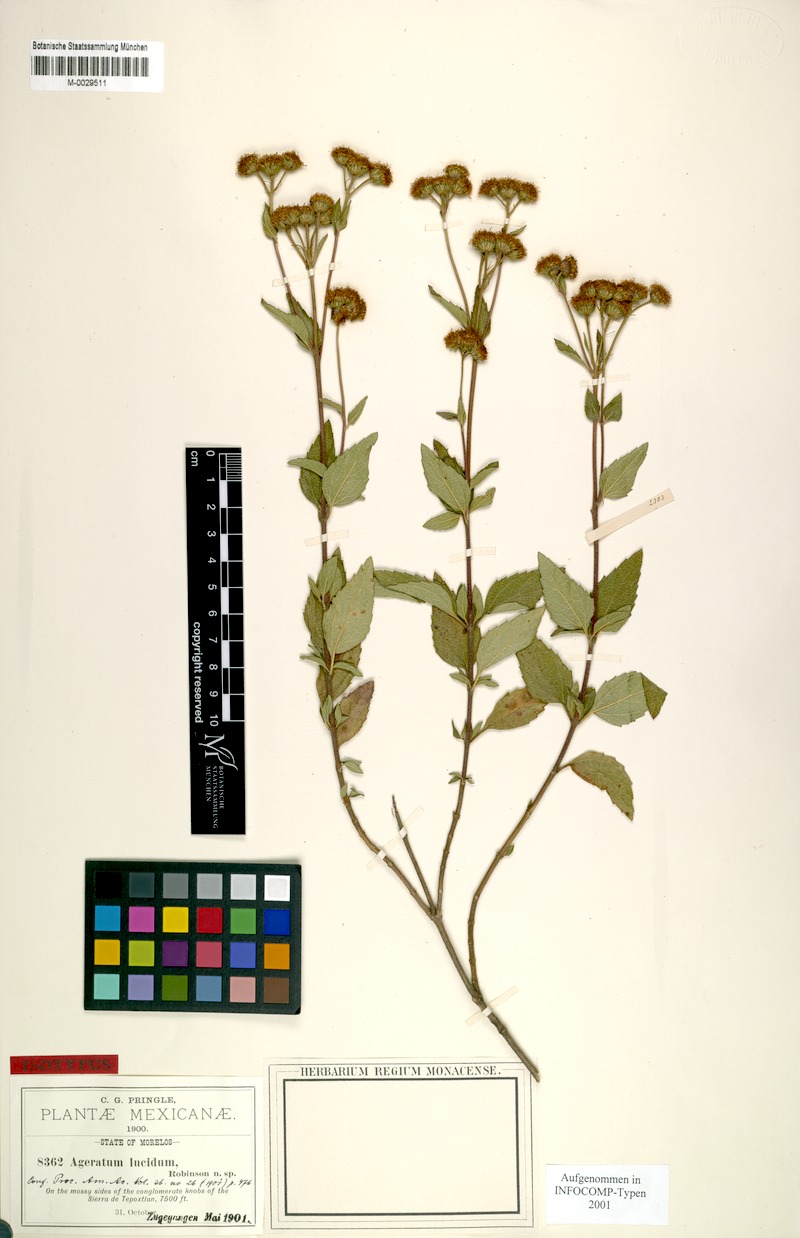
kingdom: Plantae
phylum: Tracheophyta
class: Magnoliopsida
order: Asterales
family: Asteraceae
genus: Ageratum
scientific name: Ageratum corymbosum
